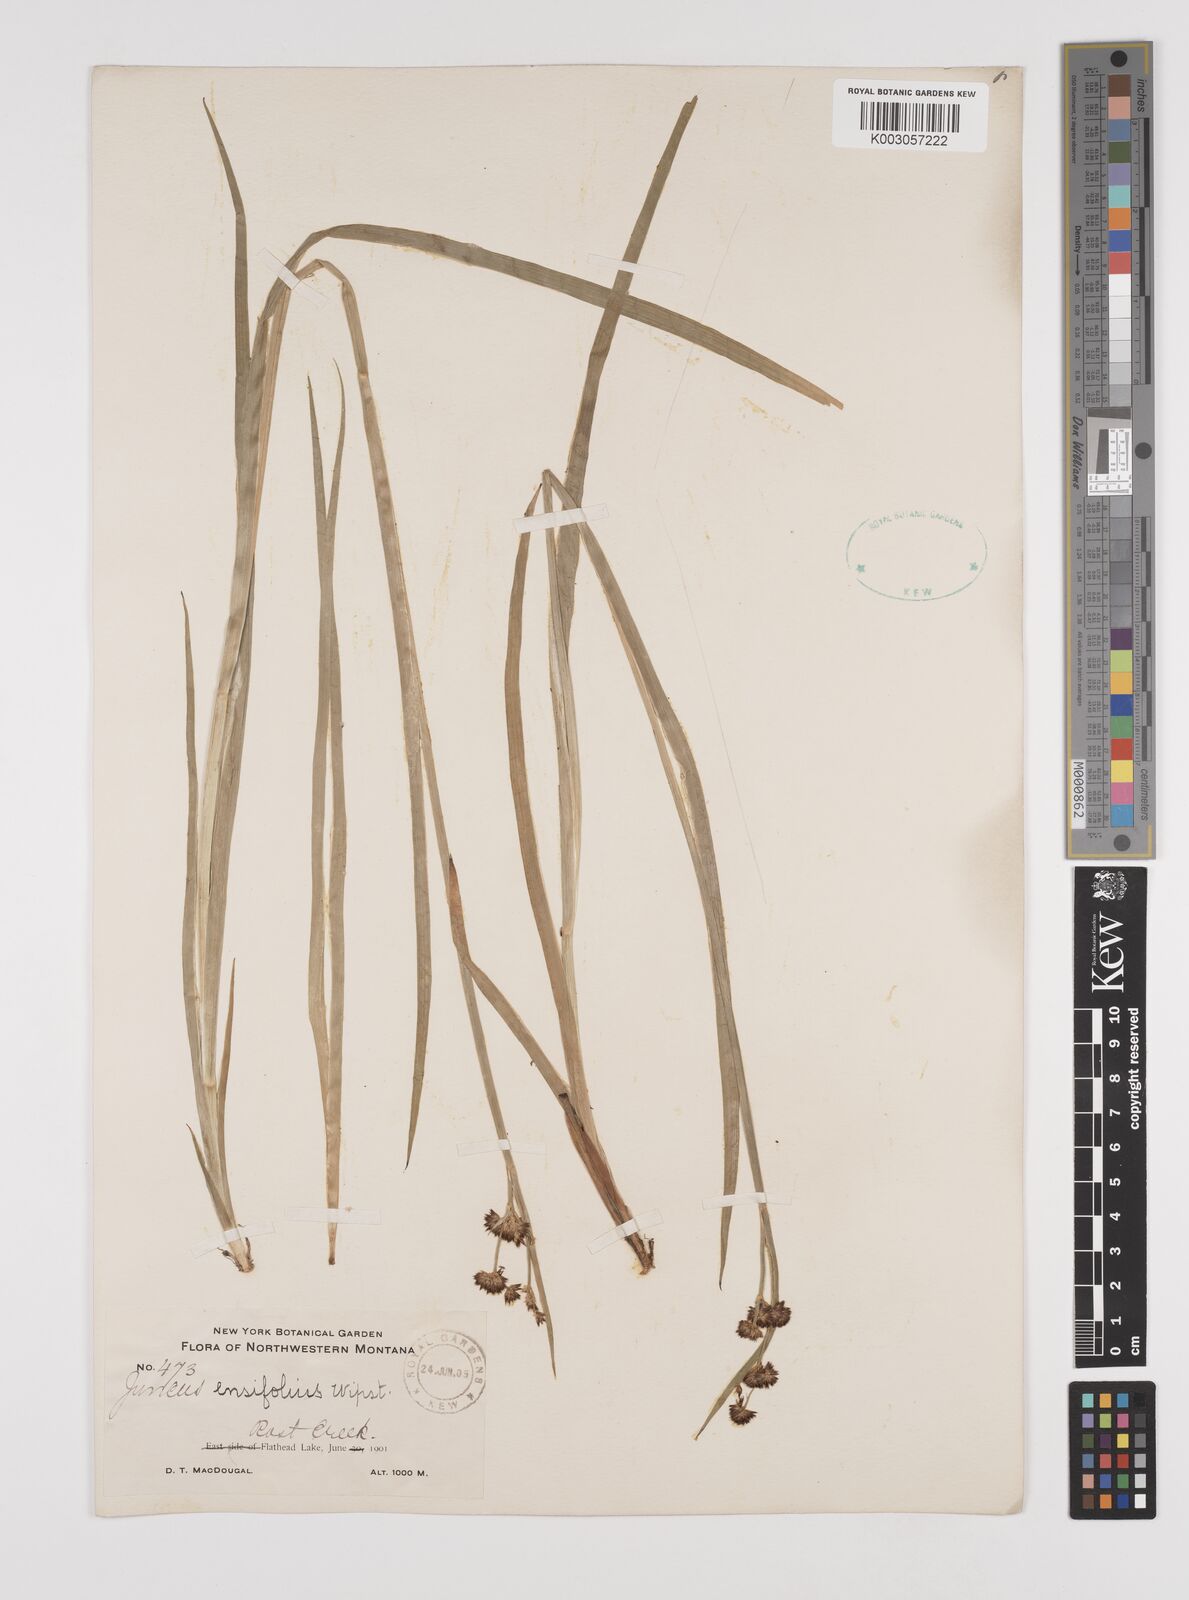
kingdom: Plantae
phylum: Tracheophyta
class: Liliopsida
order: Poales
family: Juncaceae
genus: Juncus
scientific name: Juncus ensifolius
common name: Sword-leaved rush
